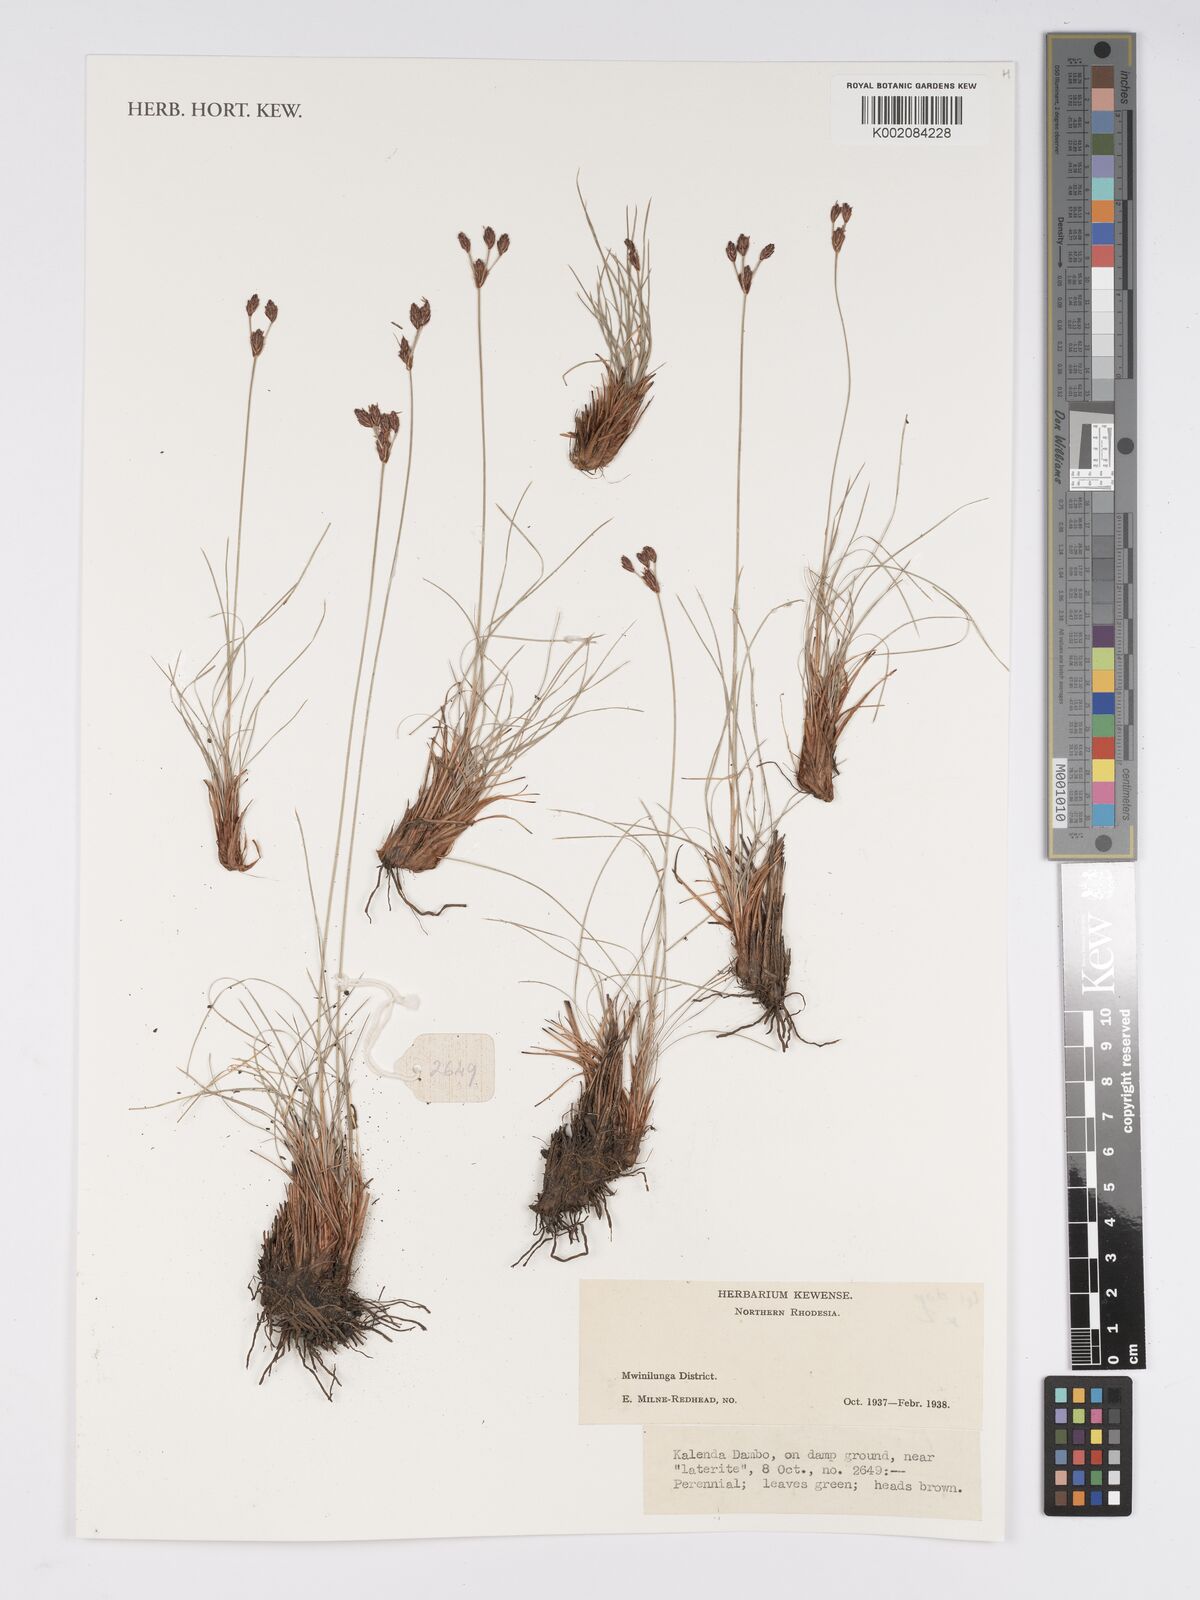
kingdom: Plantae
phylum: Tracheophyta
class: Liliopsida
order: Poales
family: Cyperaceae
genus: Bulbostylis
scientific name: Bulbostylis
